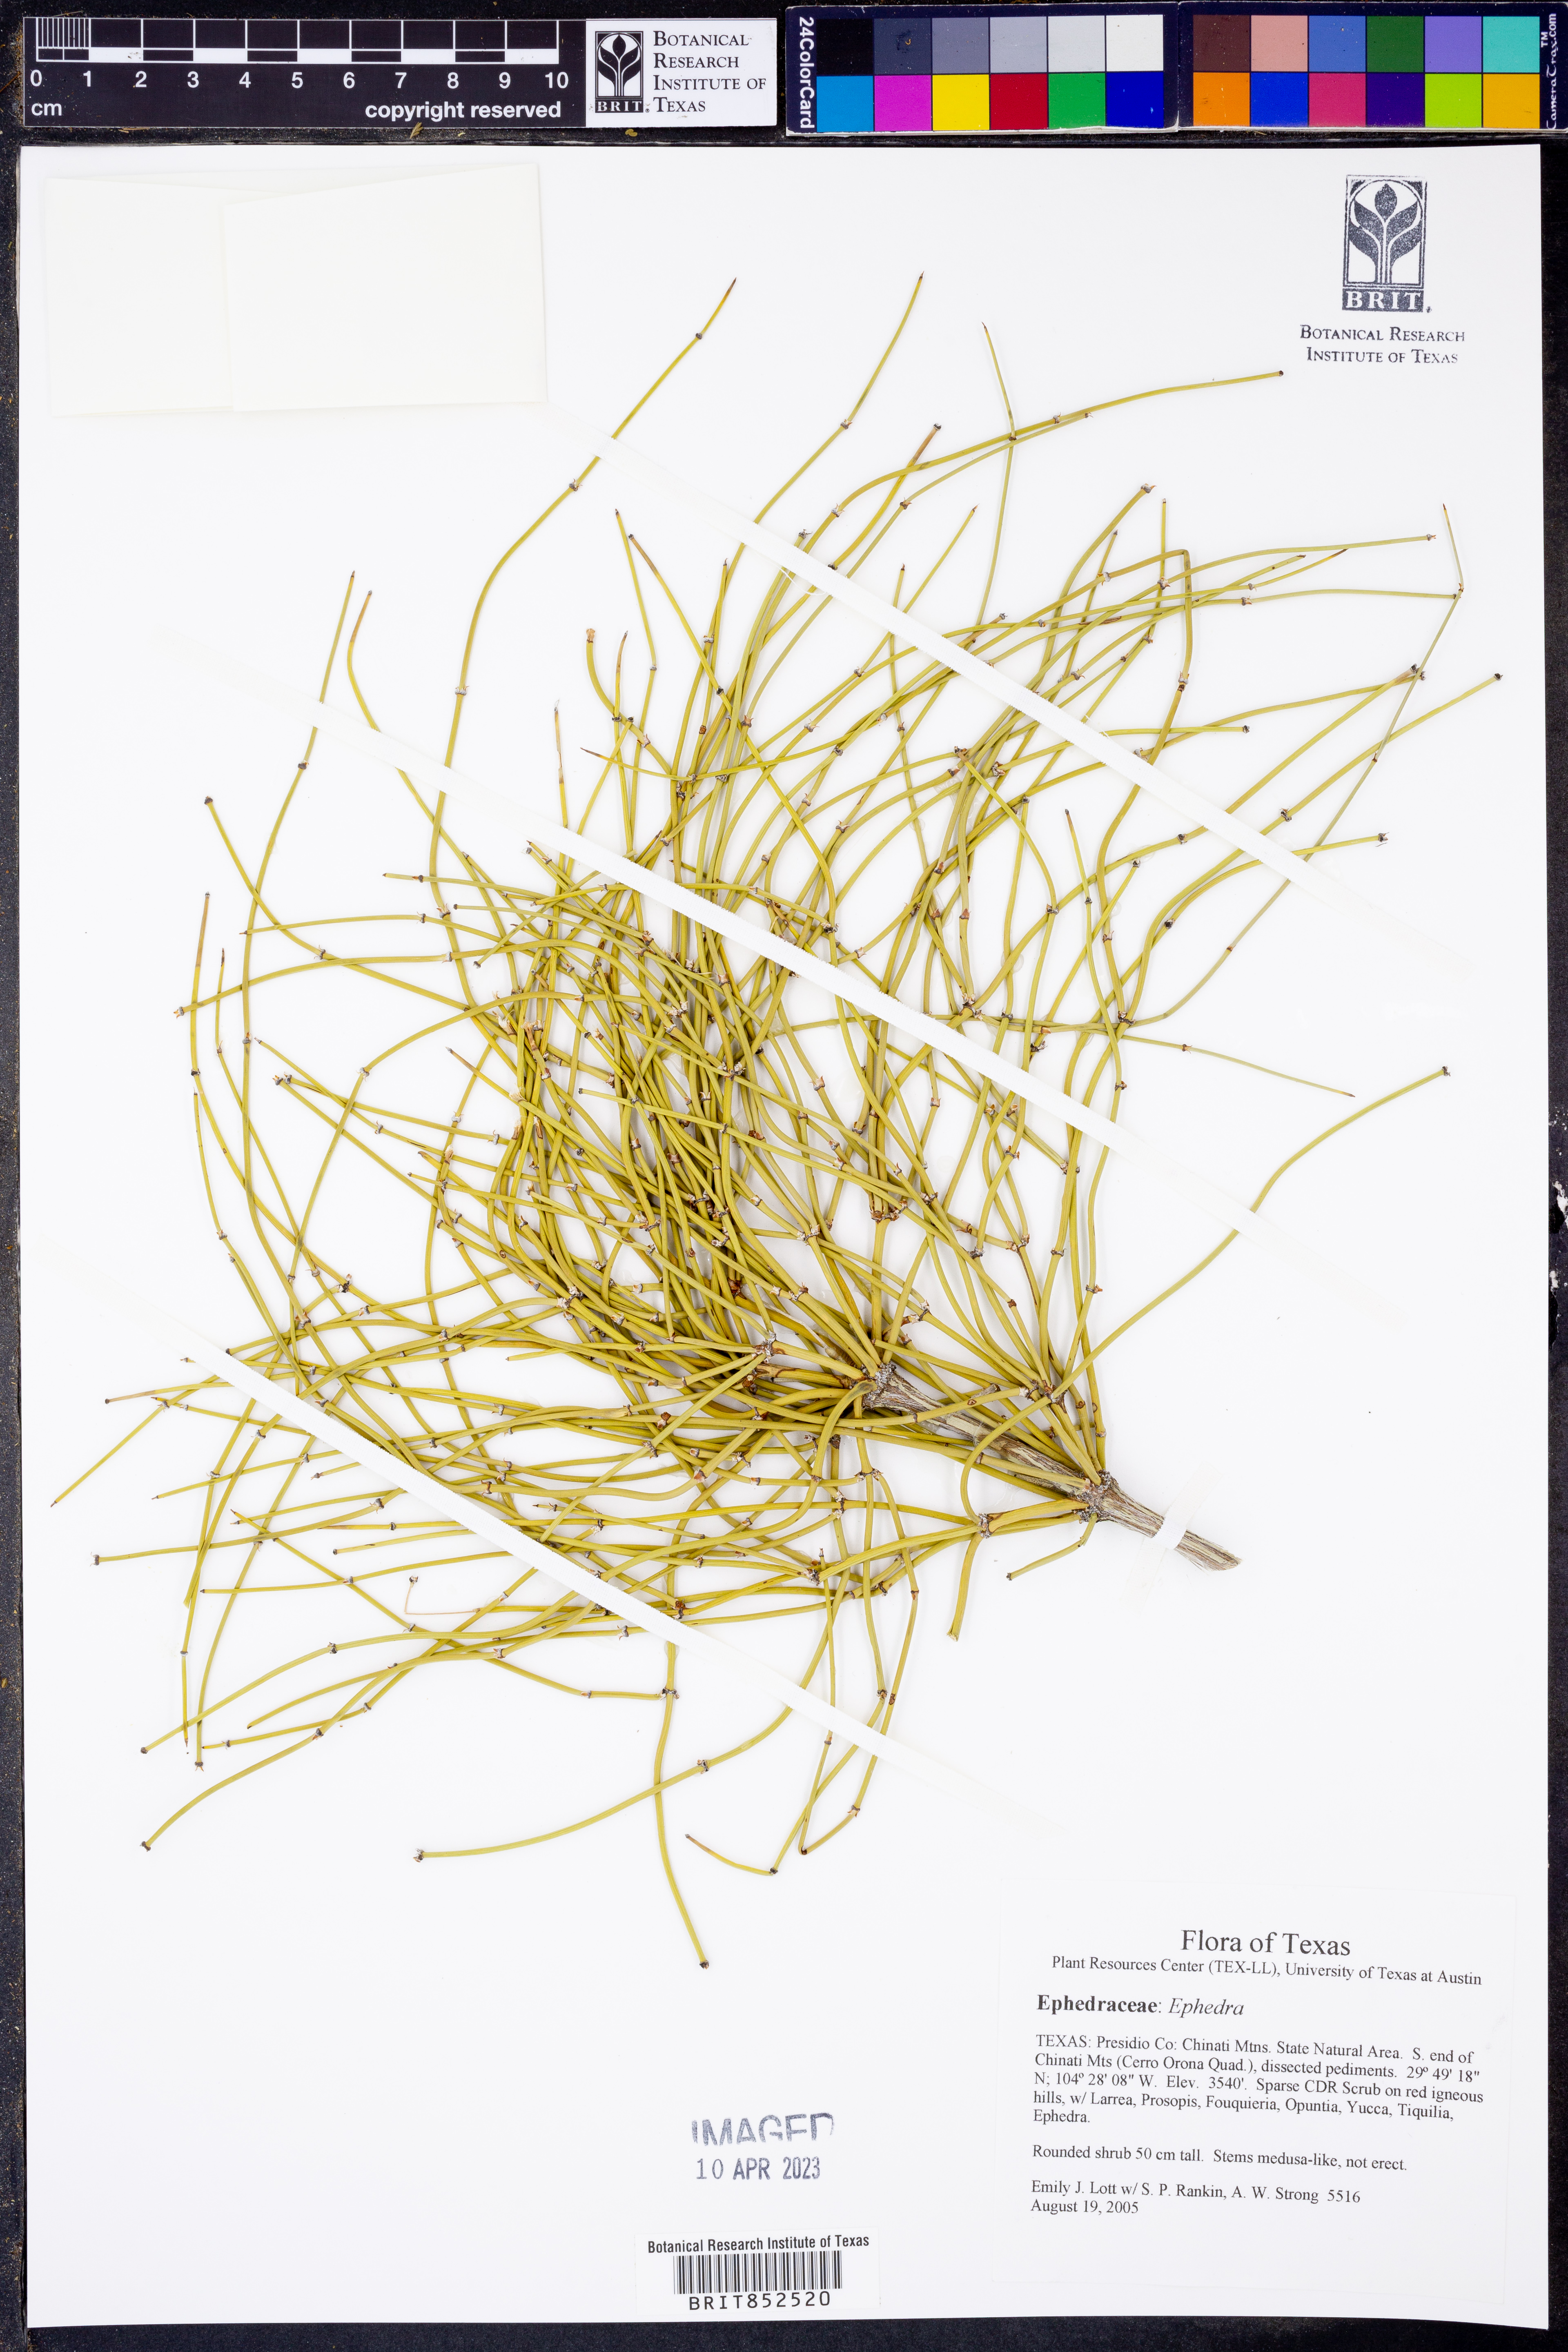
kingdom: Plantae
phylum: Tracheophyta
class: Gnetopsida
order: Ephedrales
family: Ephedraceae
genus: Ephedra
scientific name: Ephedra
